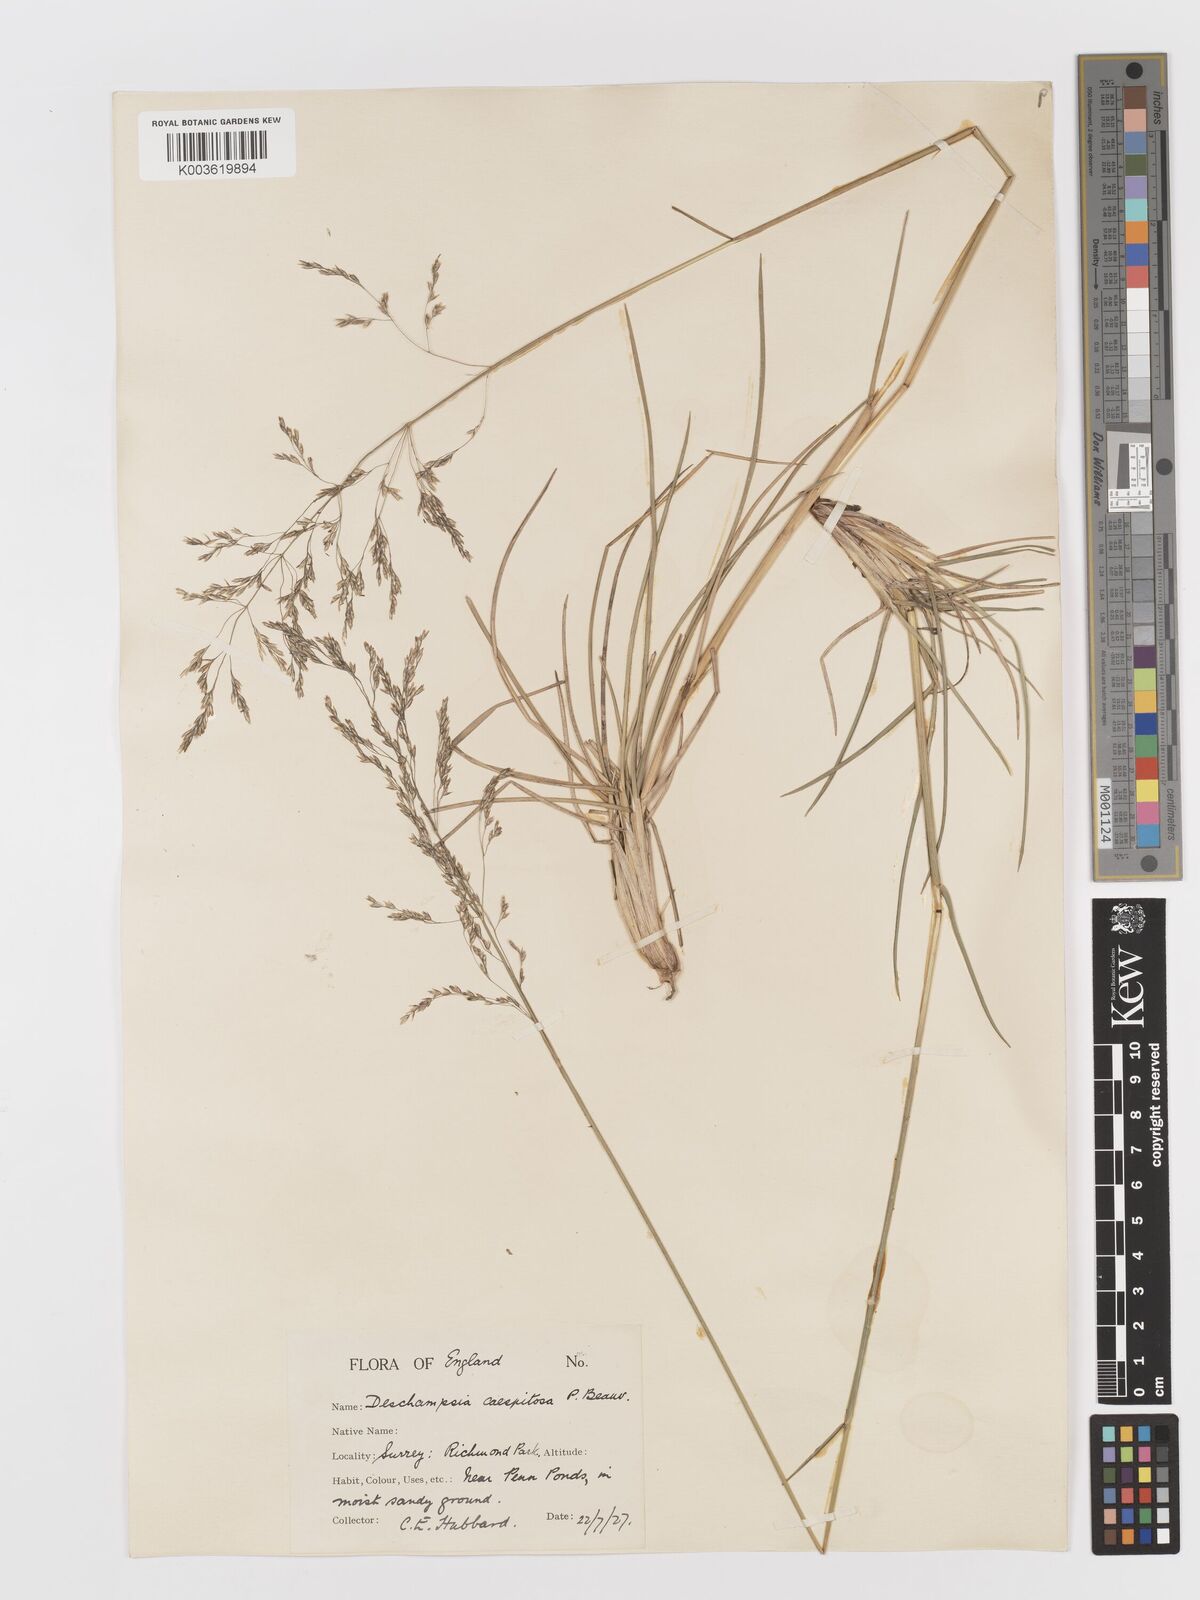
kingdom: Plantae
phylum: Tracheophyta
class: Liliopsida
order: Poales
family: Poaceae
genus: Deschampsia
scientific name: Deschampsia
